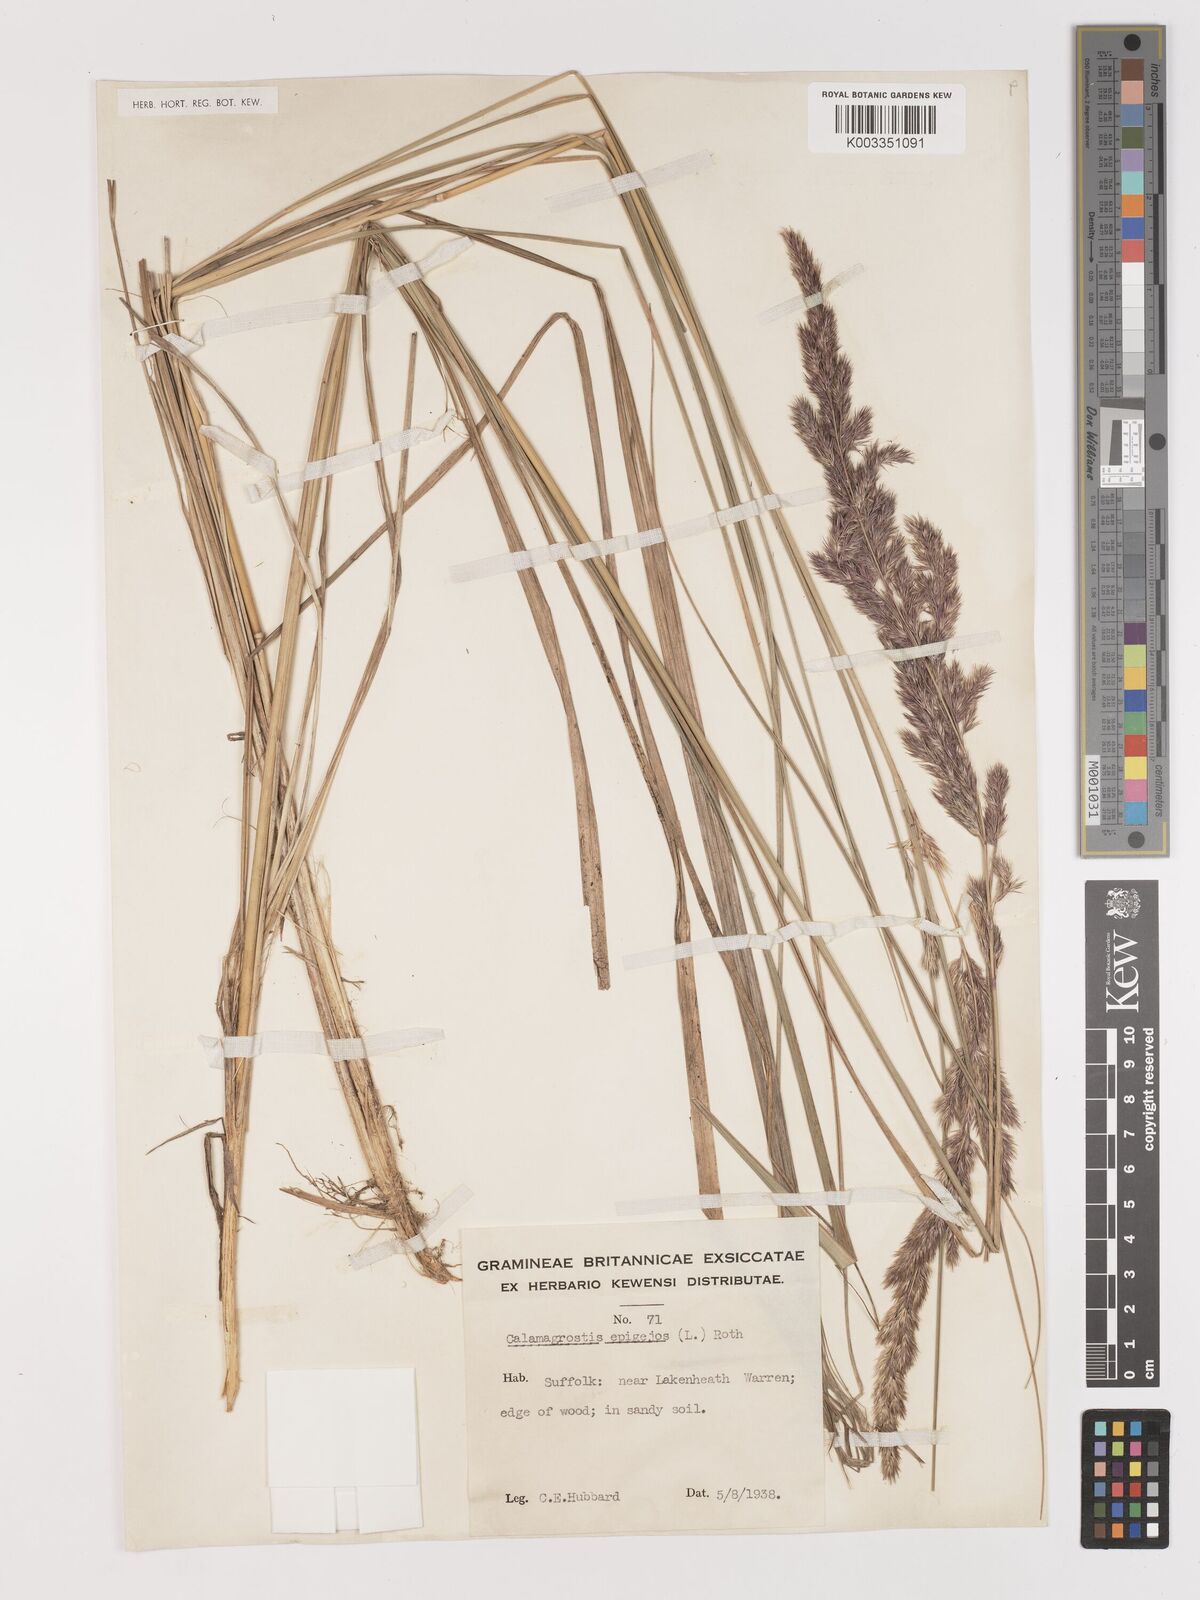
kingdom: Plantae
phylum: Tracheophyta
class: Liliopsida
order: Poales
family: Poaceae
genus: Calamagrostis
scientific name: Calamagrostis
